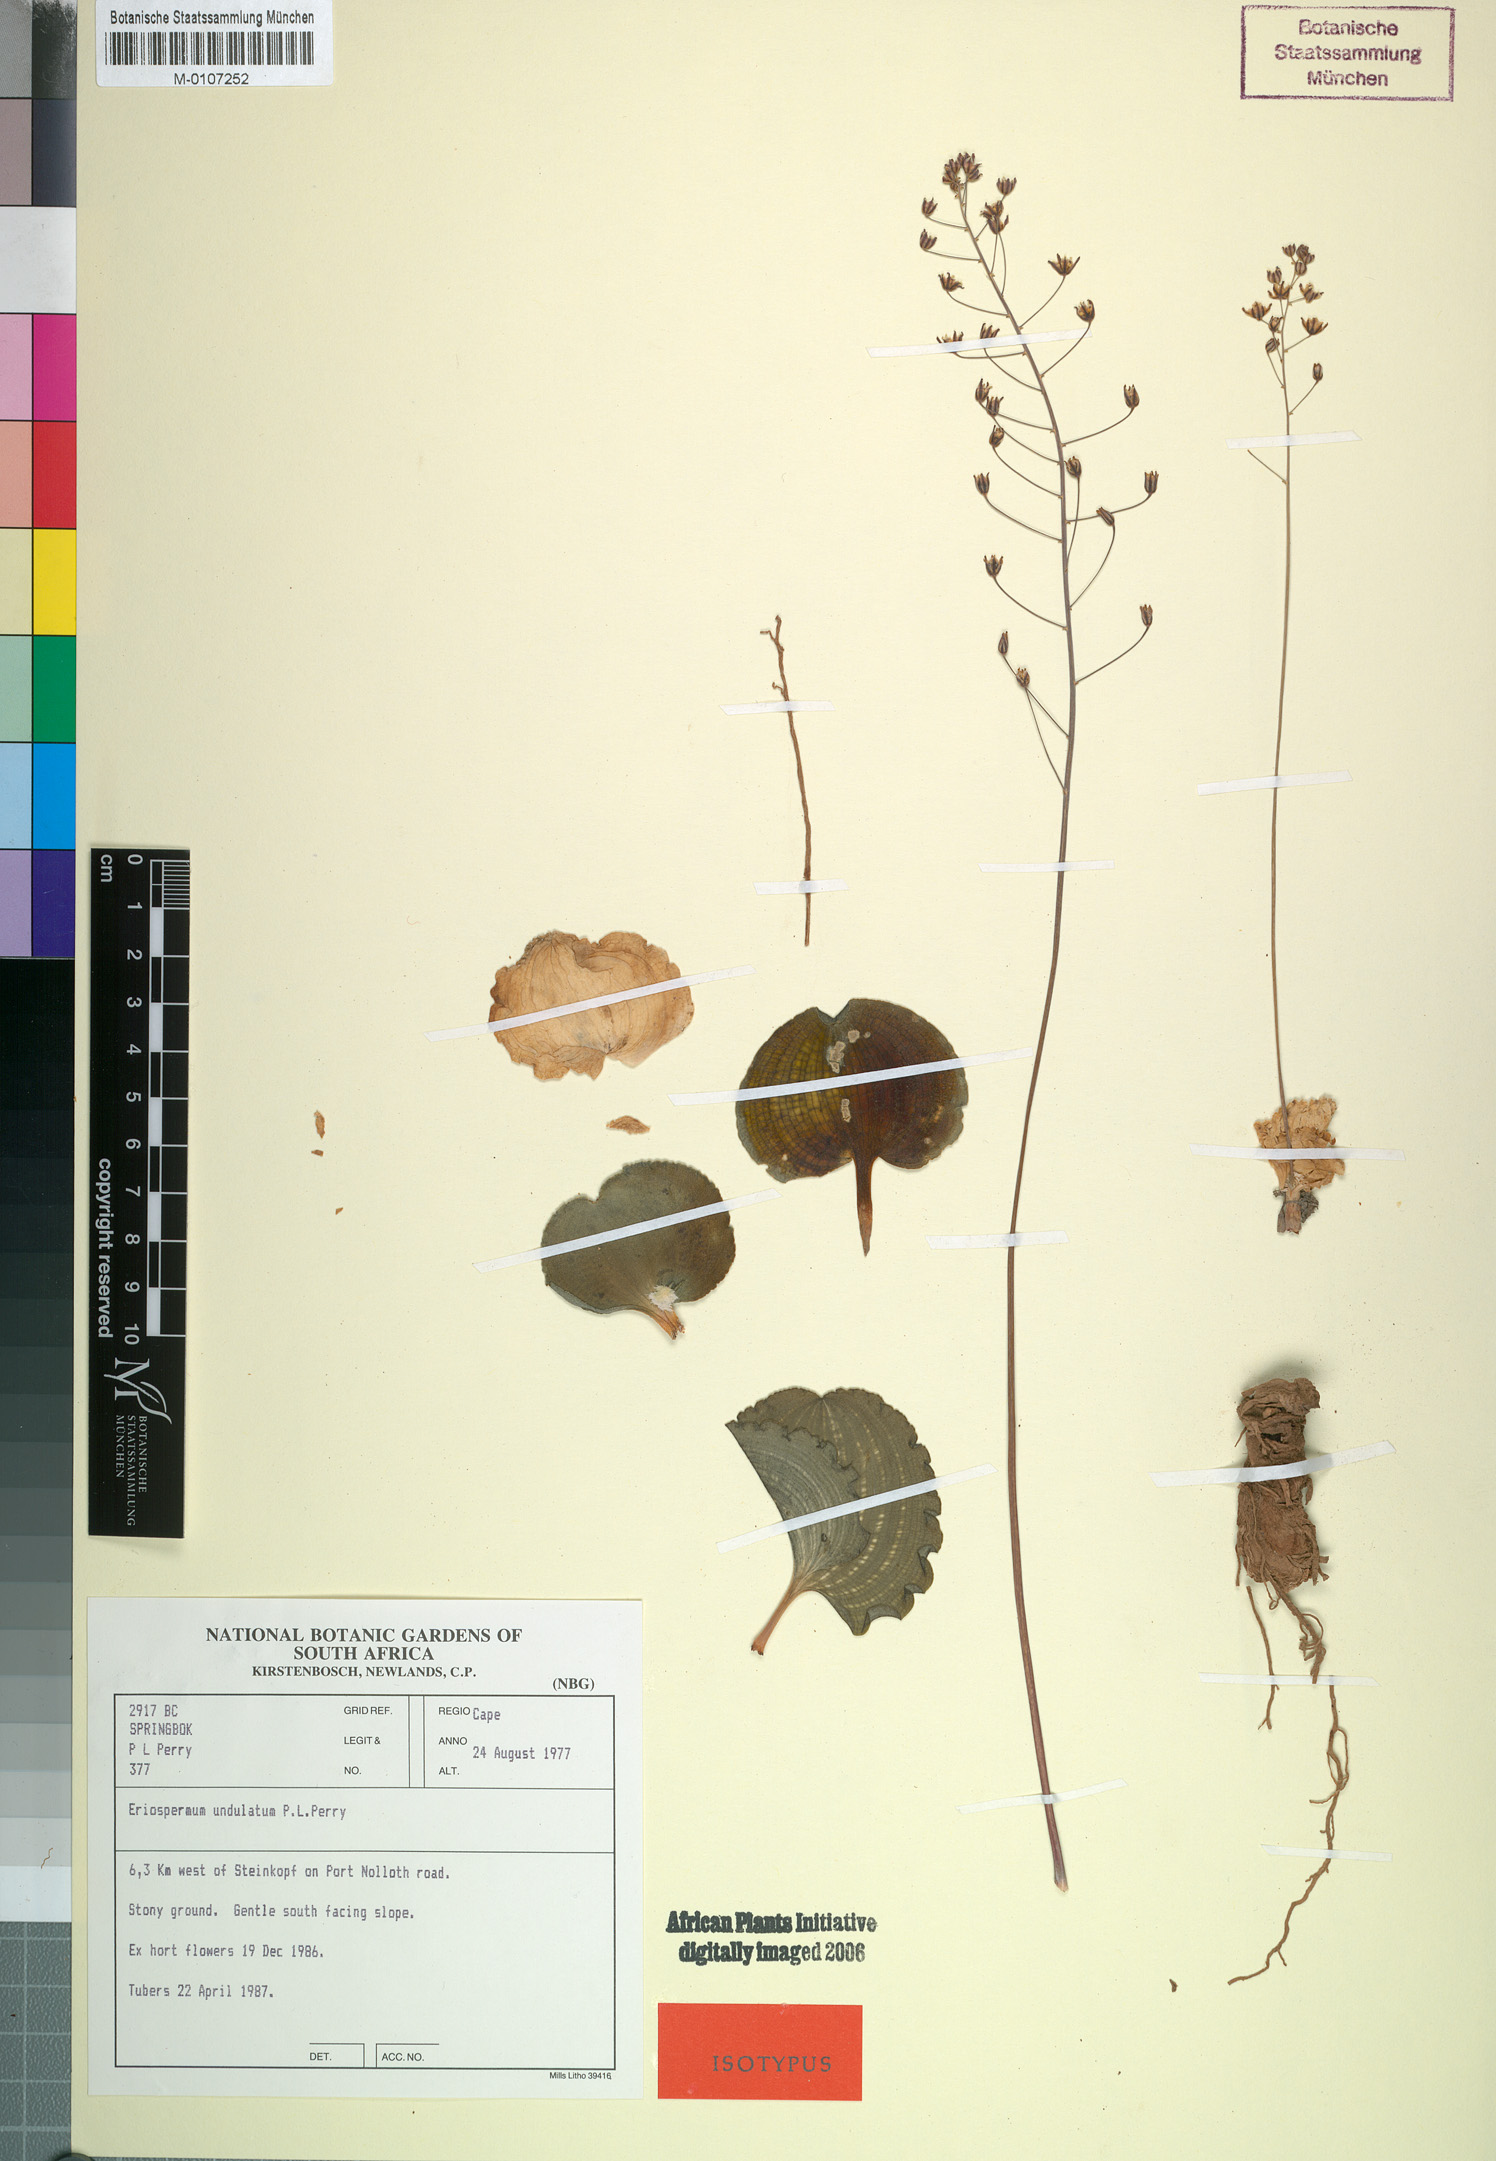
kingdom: Plantae
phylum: Tracheophyta
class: Liliopsida
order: Asparagales
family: Asparagaceae
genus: Eriospermum
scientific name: Eriospermum undulatum
